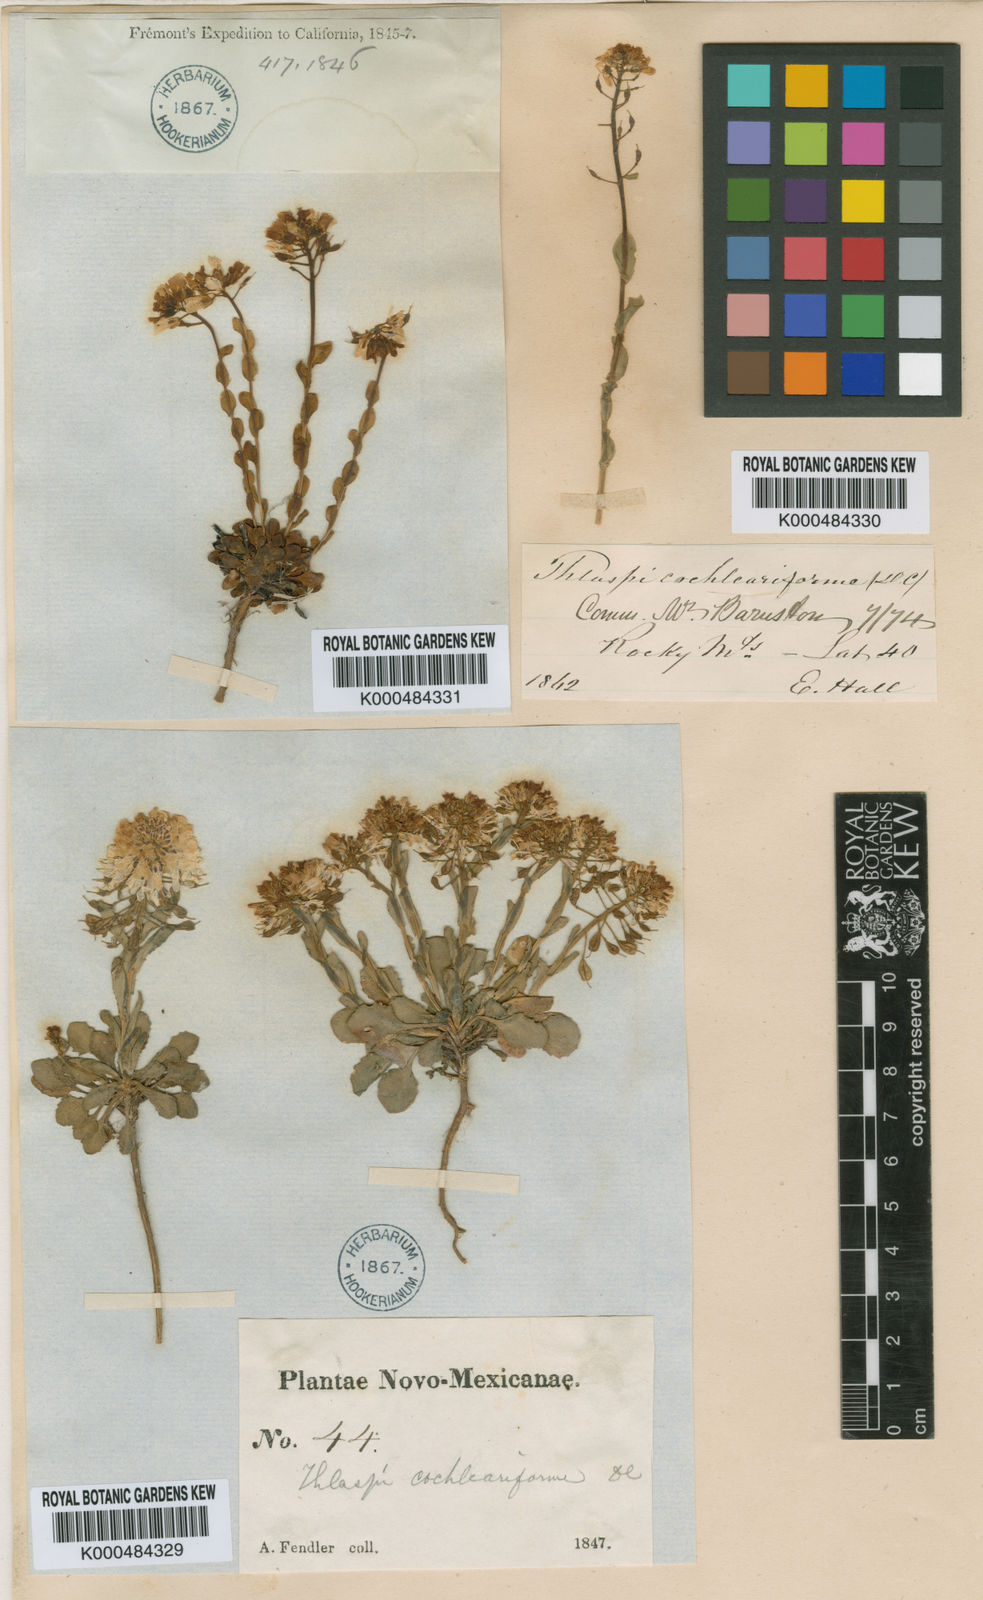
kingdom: Plantae
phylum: Tracheophyta
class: Magnoliopsida
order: Brassicales
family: Brassicaceae
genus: Noccaea
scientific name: Noccaea alpestris
